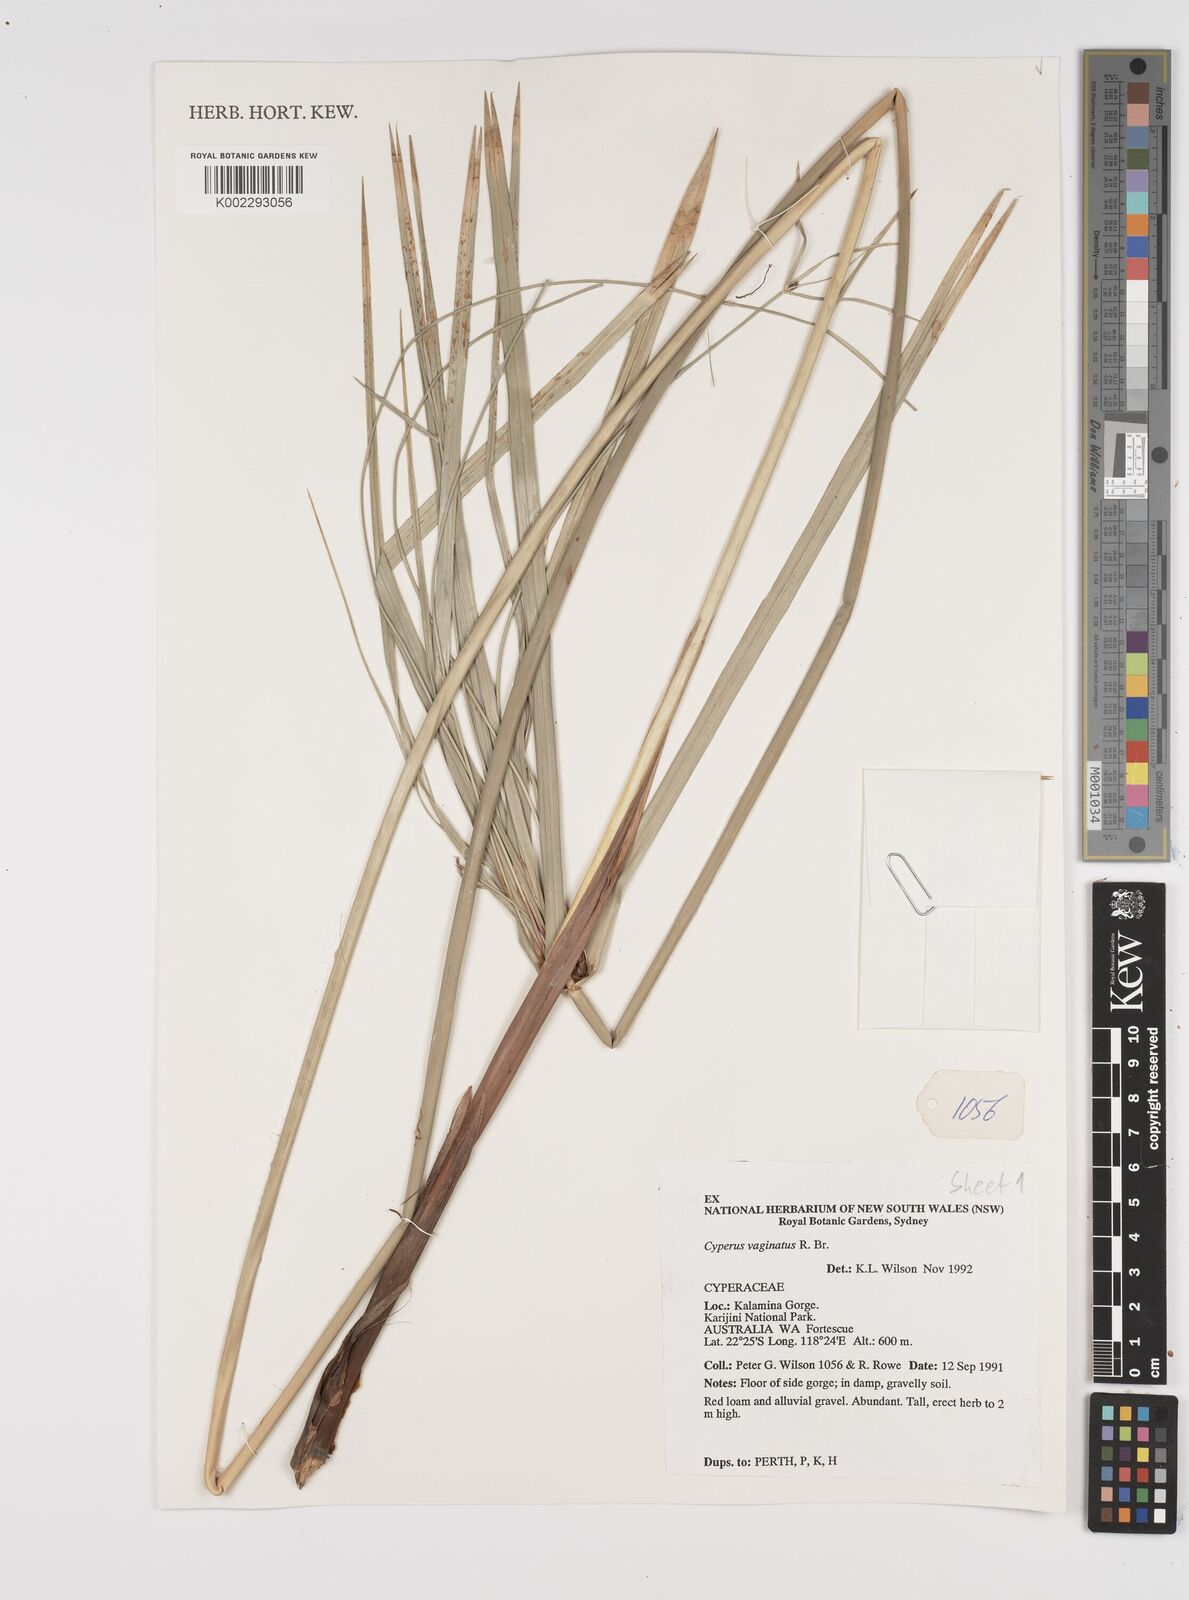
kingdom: Plantae
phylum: Tracheophyta
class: Liliopsida
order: Poales
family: Cyperaceae
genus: Cyperus
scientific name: Cyperus vaginatus
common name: Stiff-leaved flat-sedge
